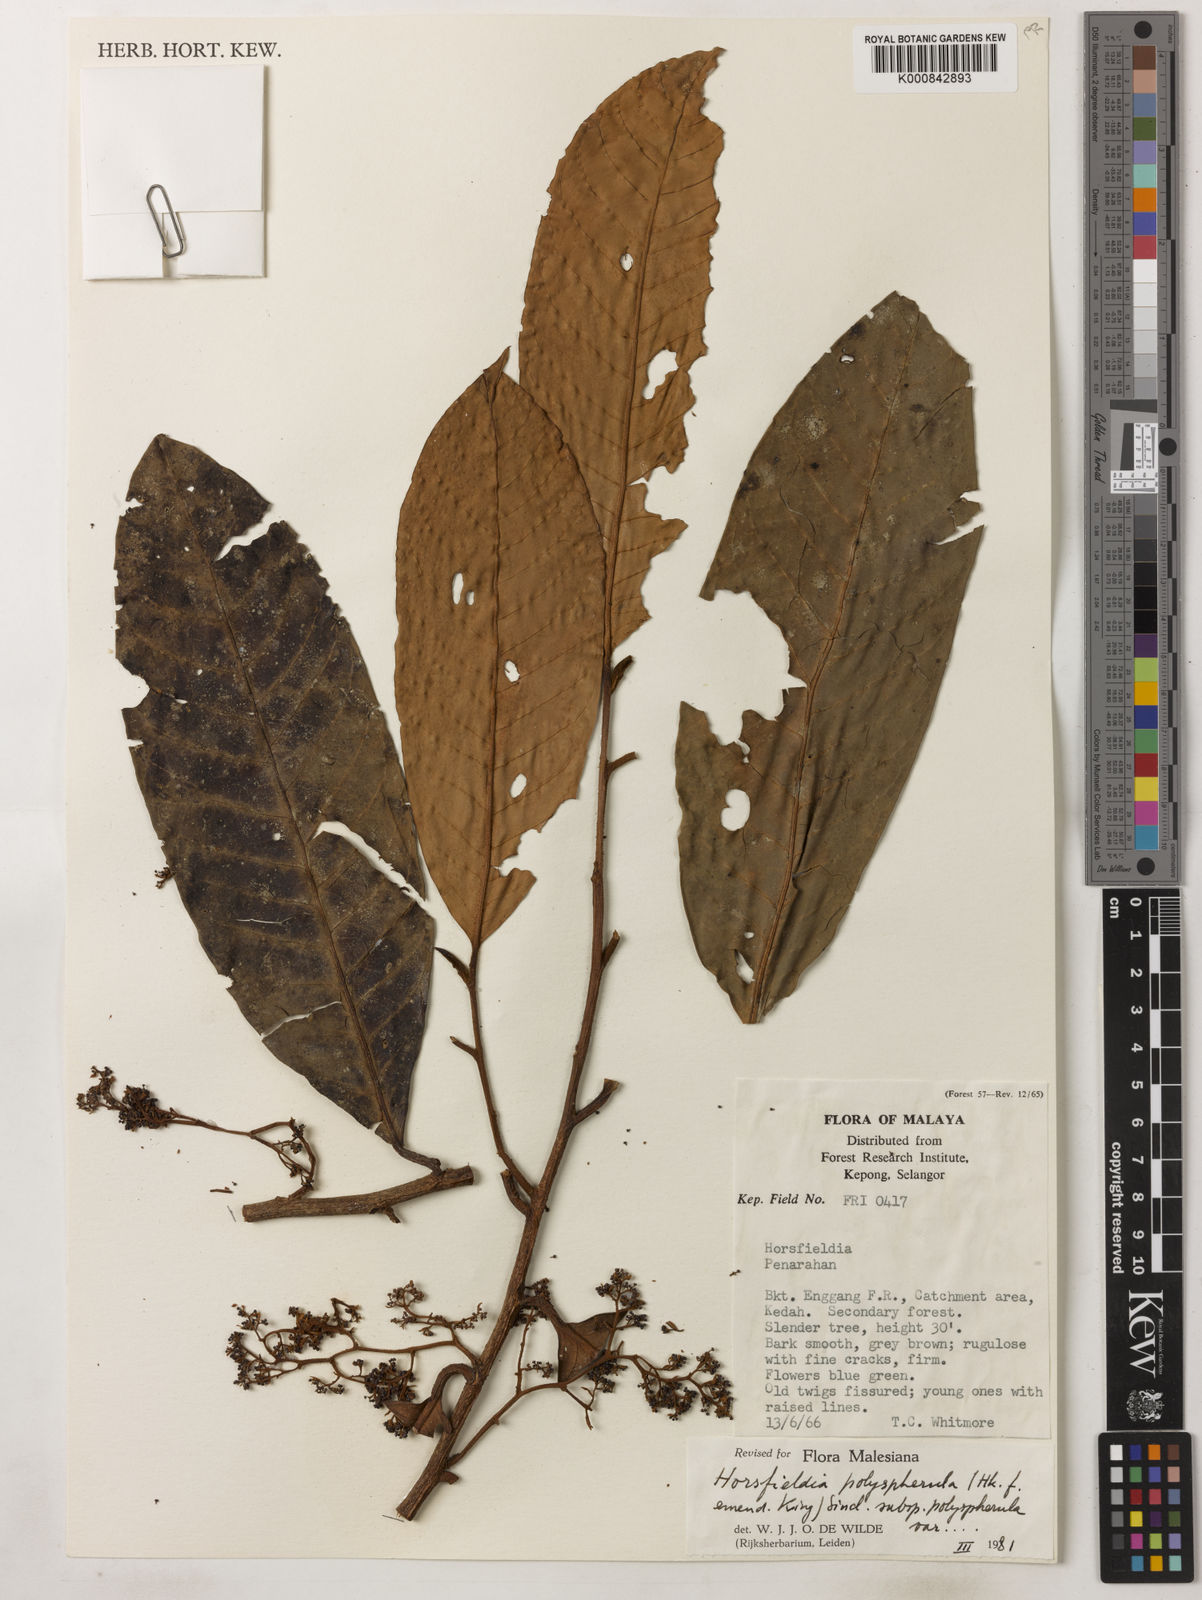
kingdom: Plantae
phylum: Tracheophyta
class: Magnoliopsida
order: Magnoliales
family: Myristicaceae
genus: Horsfieldia
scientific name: Horsfieldia
